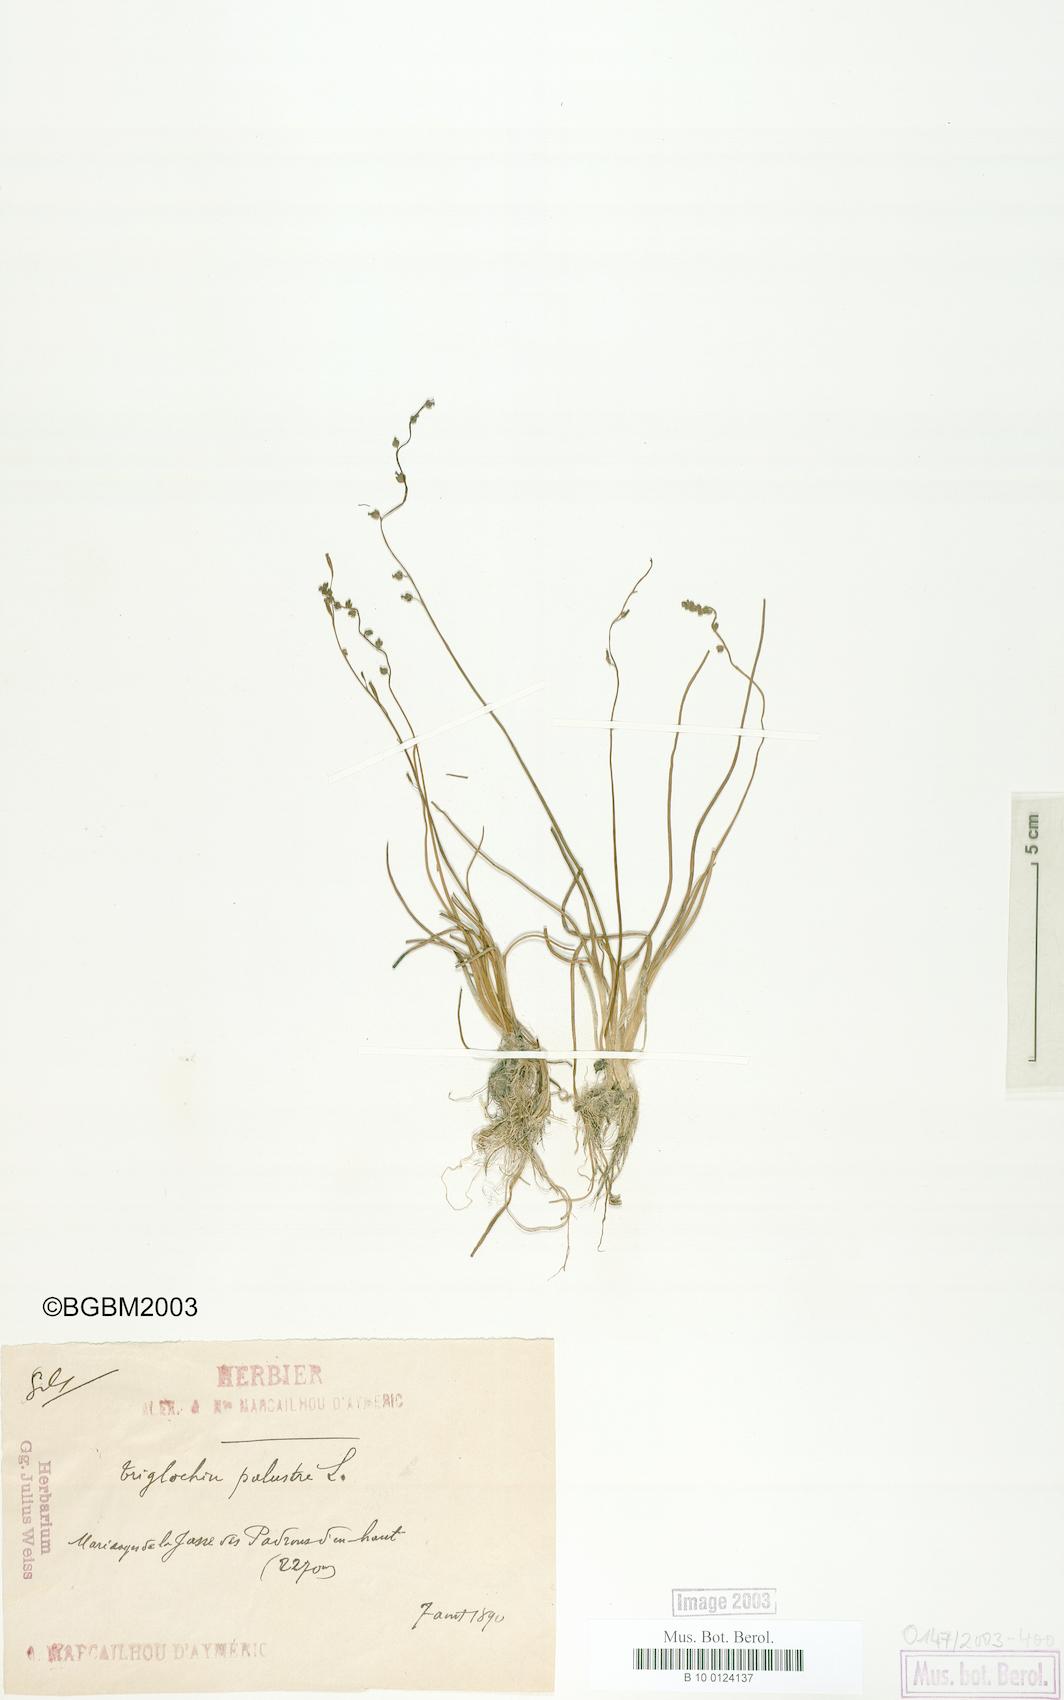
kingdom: Plantae
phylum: Tracheophyta
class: Liliopsida
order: Alismatales
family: Juncaginaceae
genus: Triglochin
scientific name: Triglochin palustris
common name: Marsh arrowgrass
